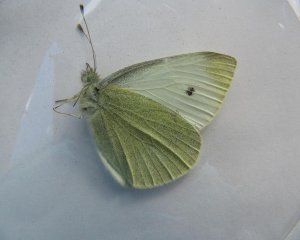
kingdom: Animalia
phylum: Arthropoda
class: Insecta
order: Lepidoptera
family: Pieridae
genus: Pieris
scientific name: Pieris rapae
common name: Cabbage White
